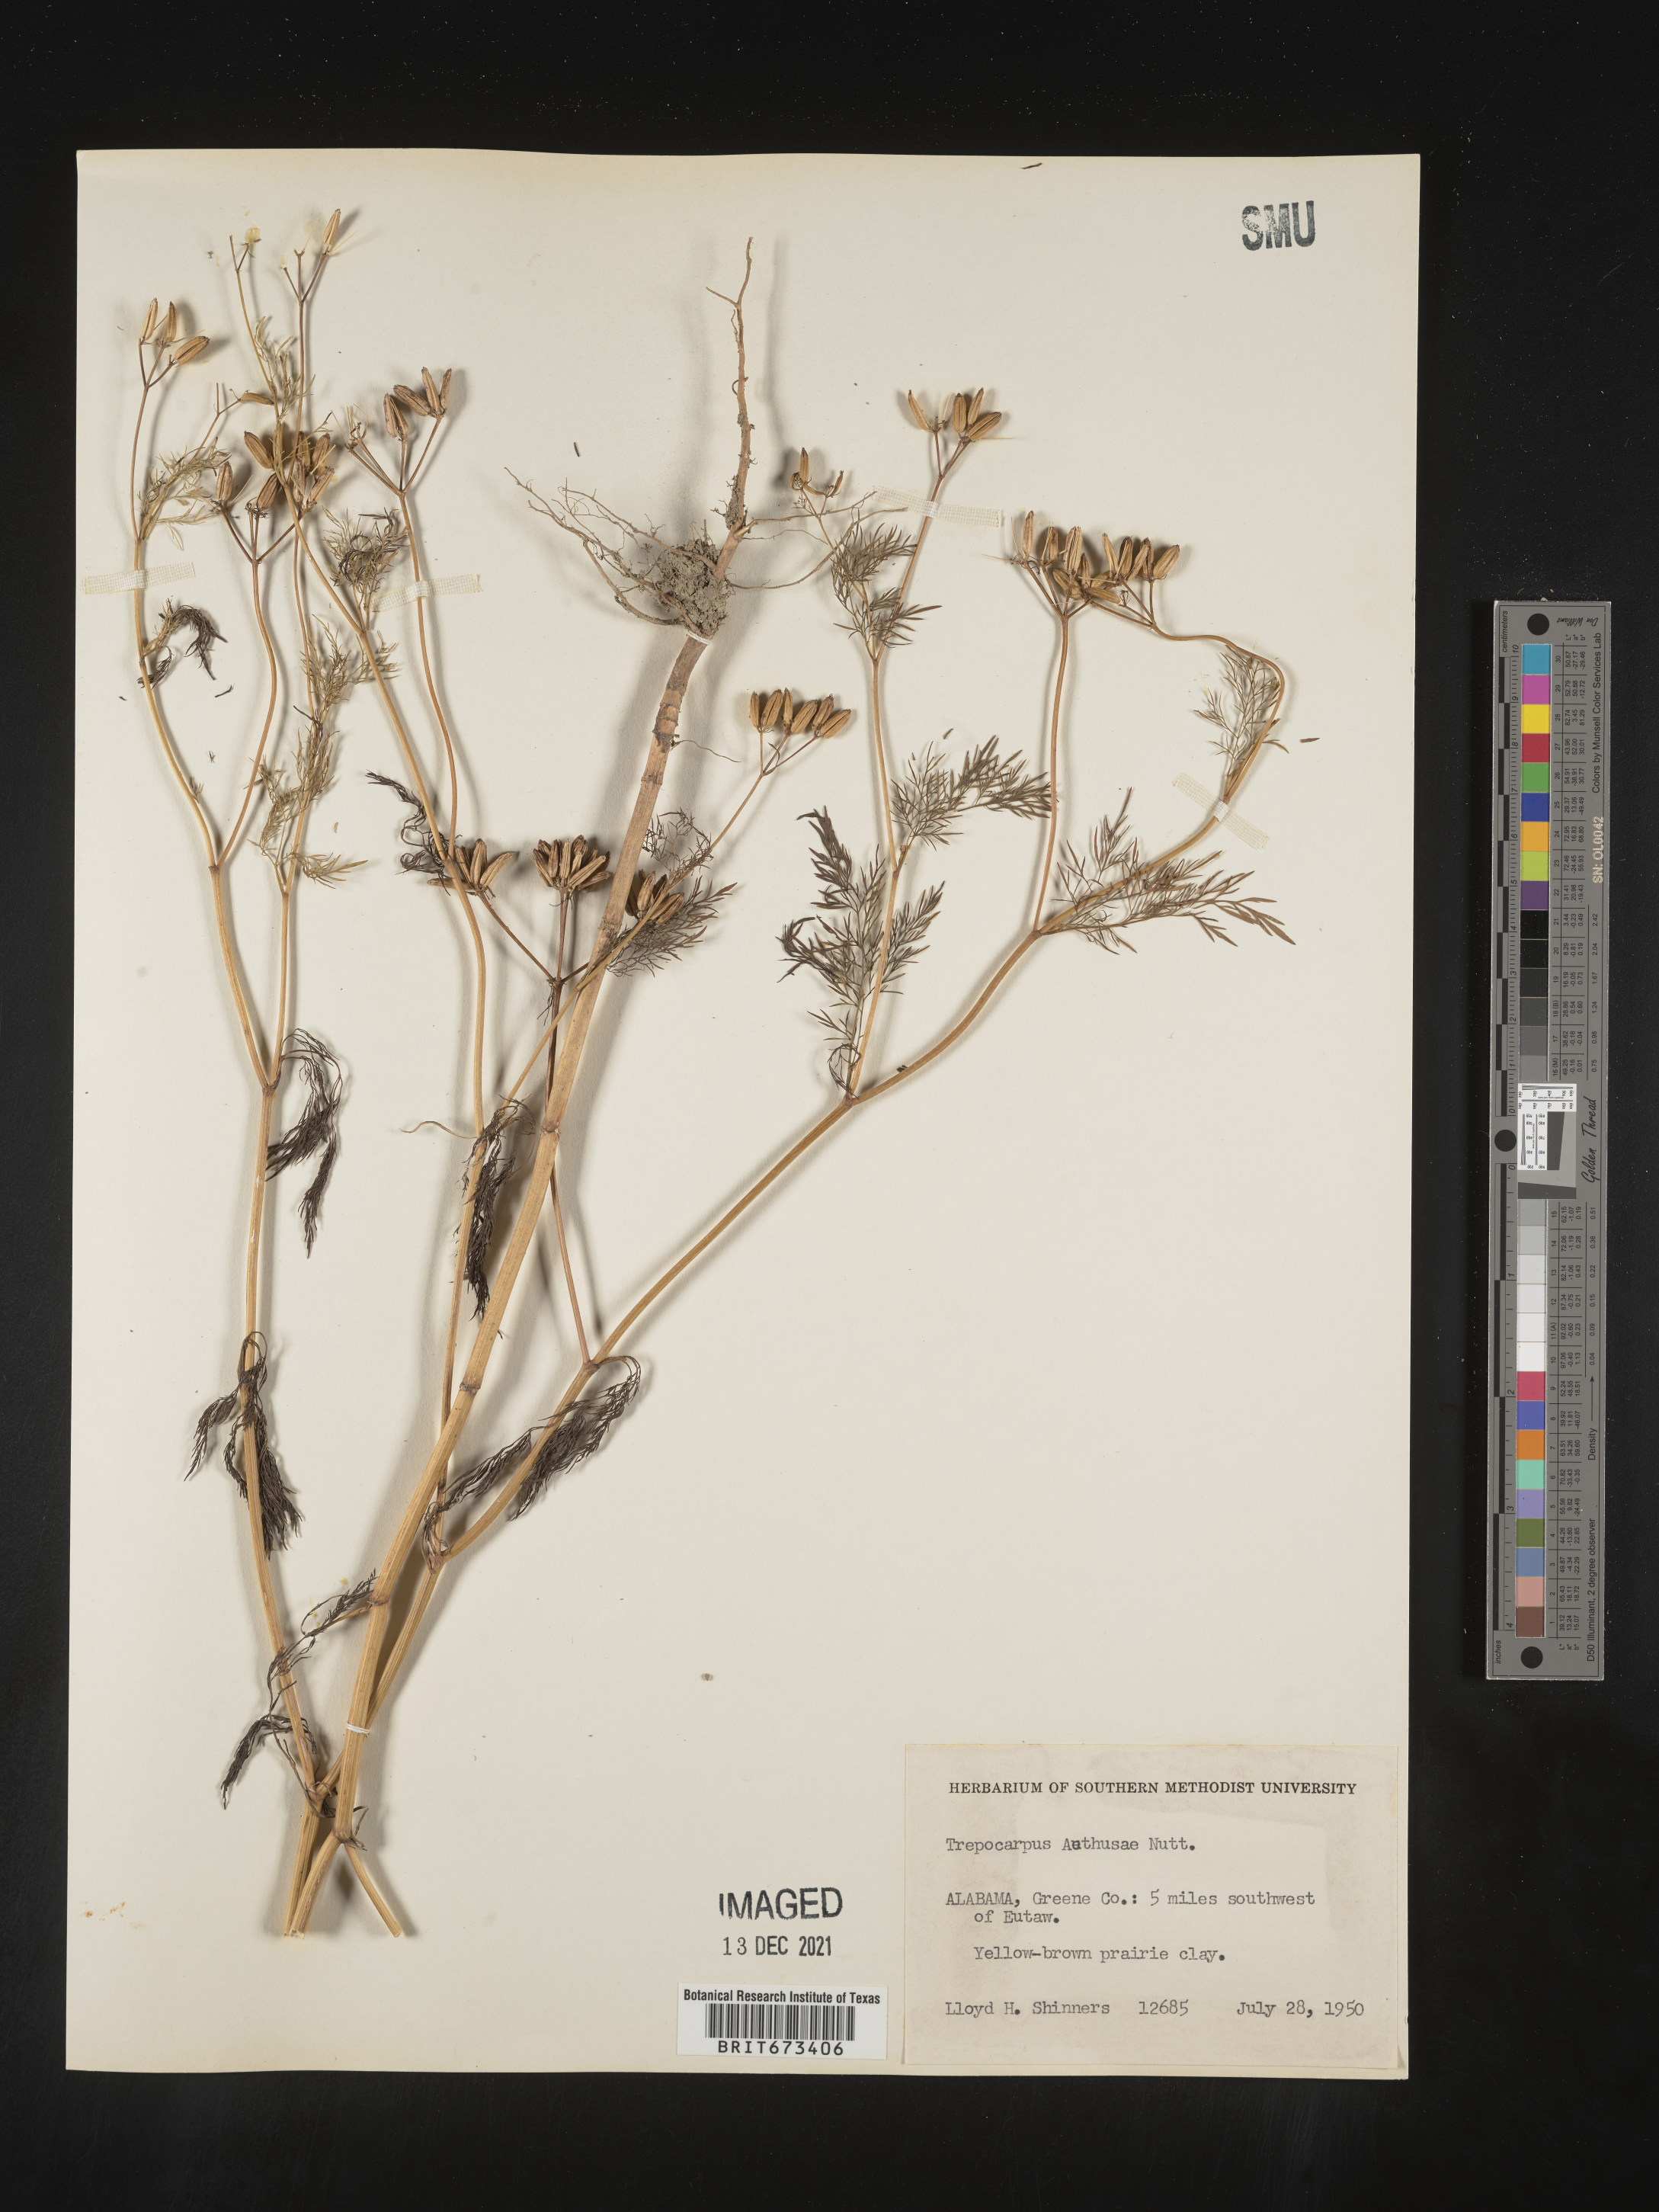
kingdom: Plantae
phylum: Tracheophyta
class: Magnoliopsida
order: Apiales
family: Apiaceae
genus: Trepocarpus
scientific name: Trepocarpus aethusae
